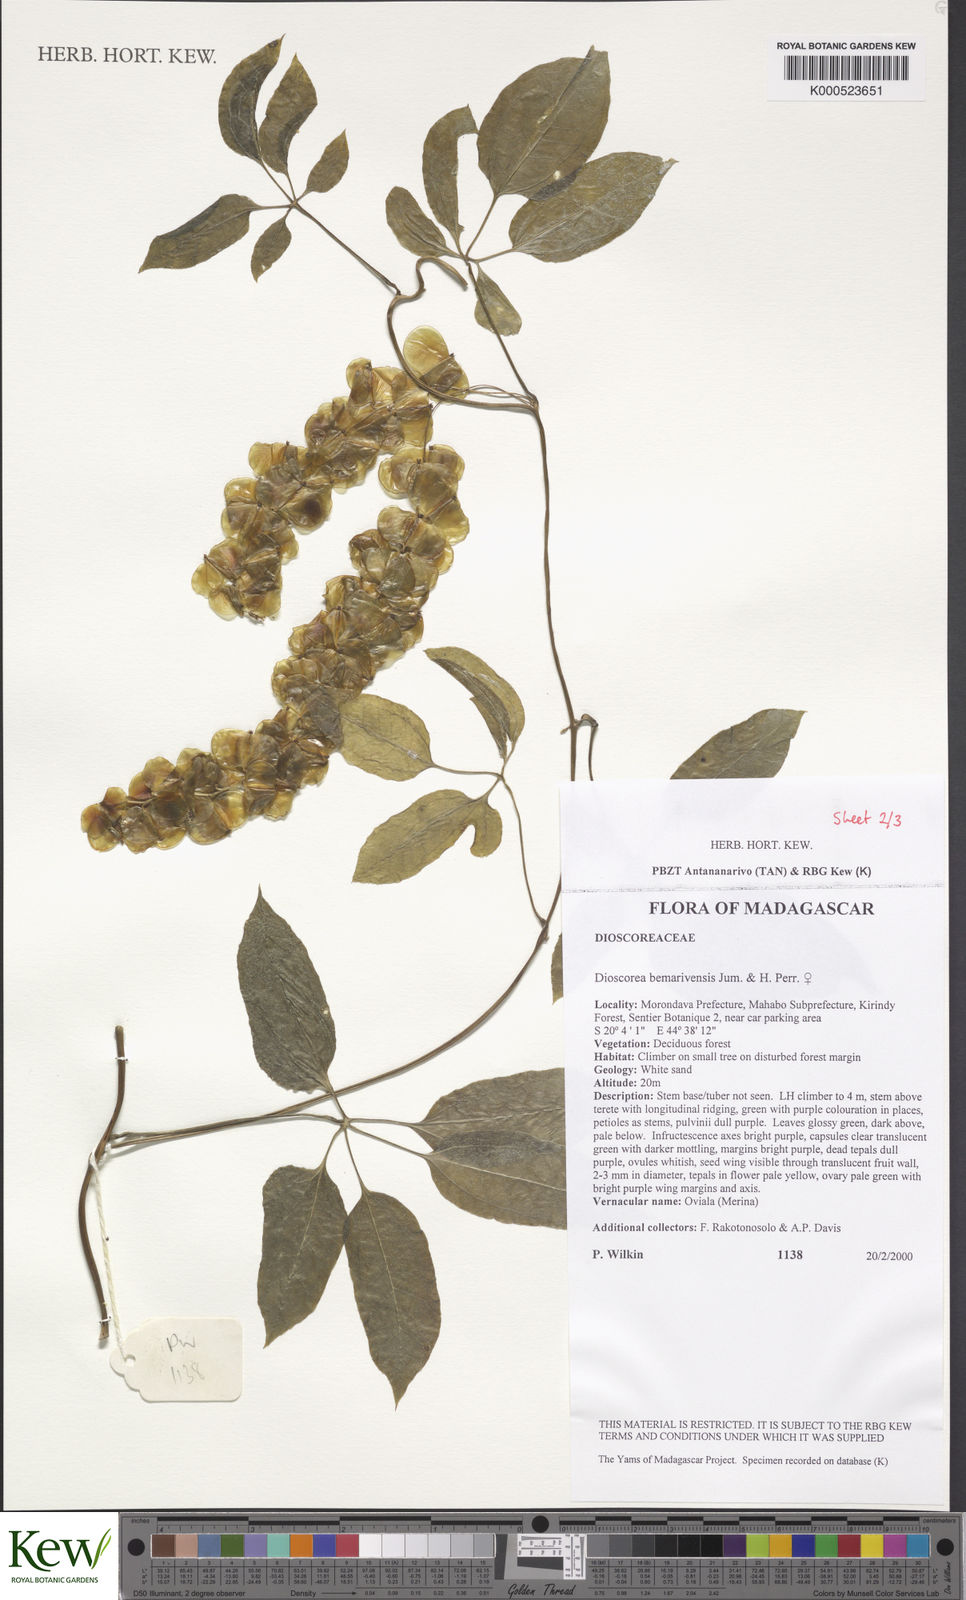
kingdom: Plantae
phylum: Tracheophyta
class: Liliopsida
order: Dioscoreales
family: Dioscoreaceae
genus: Dioscorea
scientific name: Dioscorea bemarivensis
